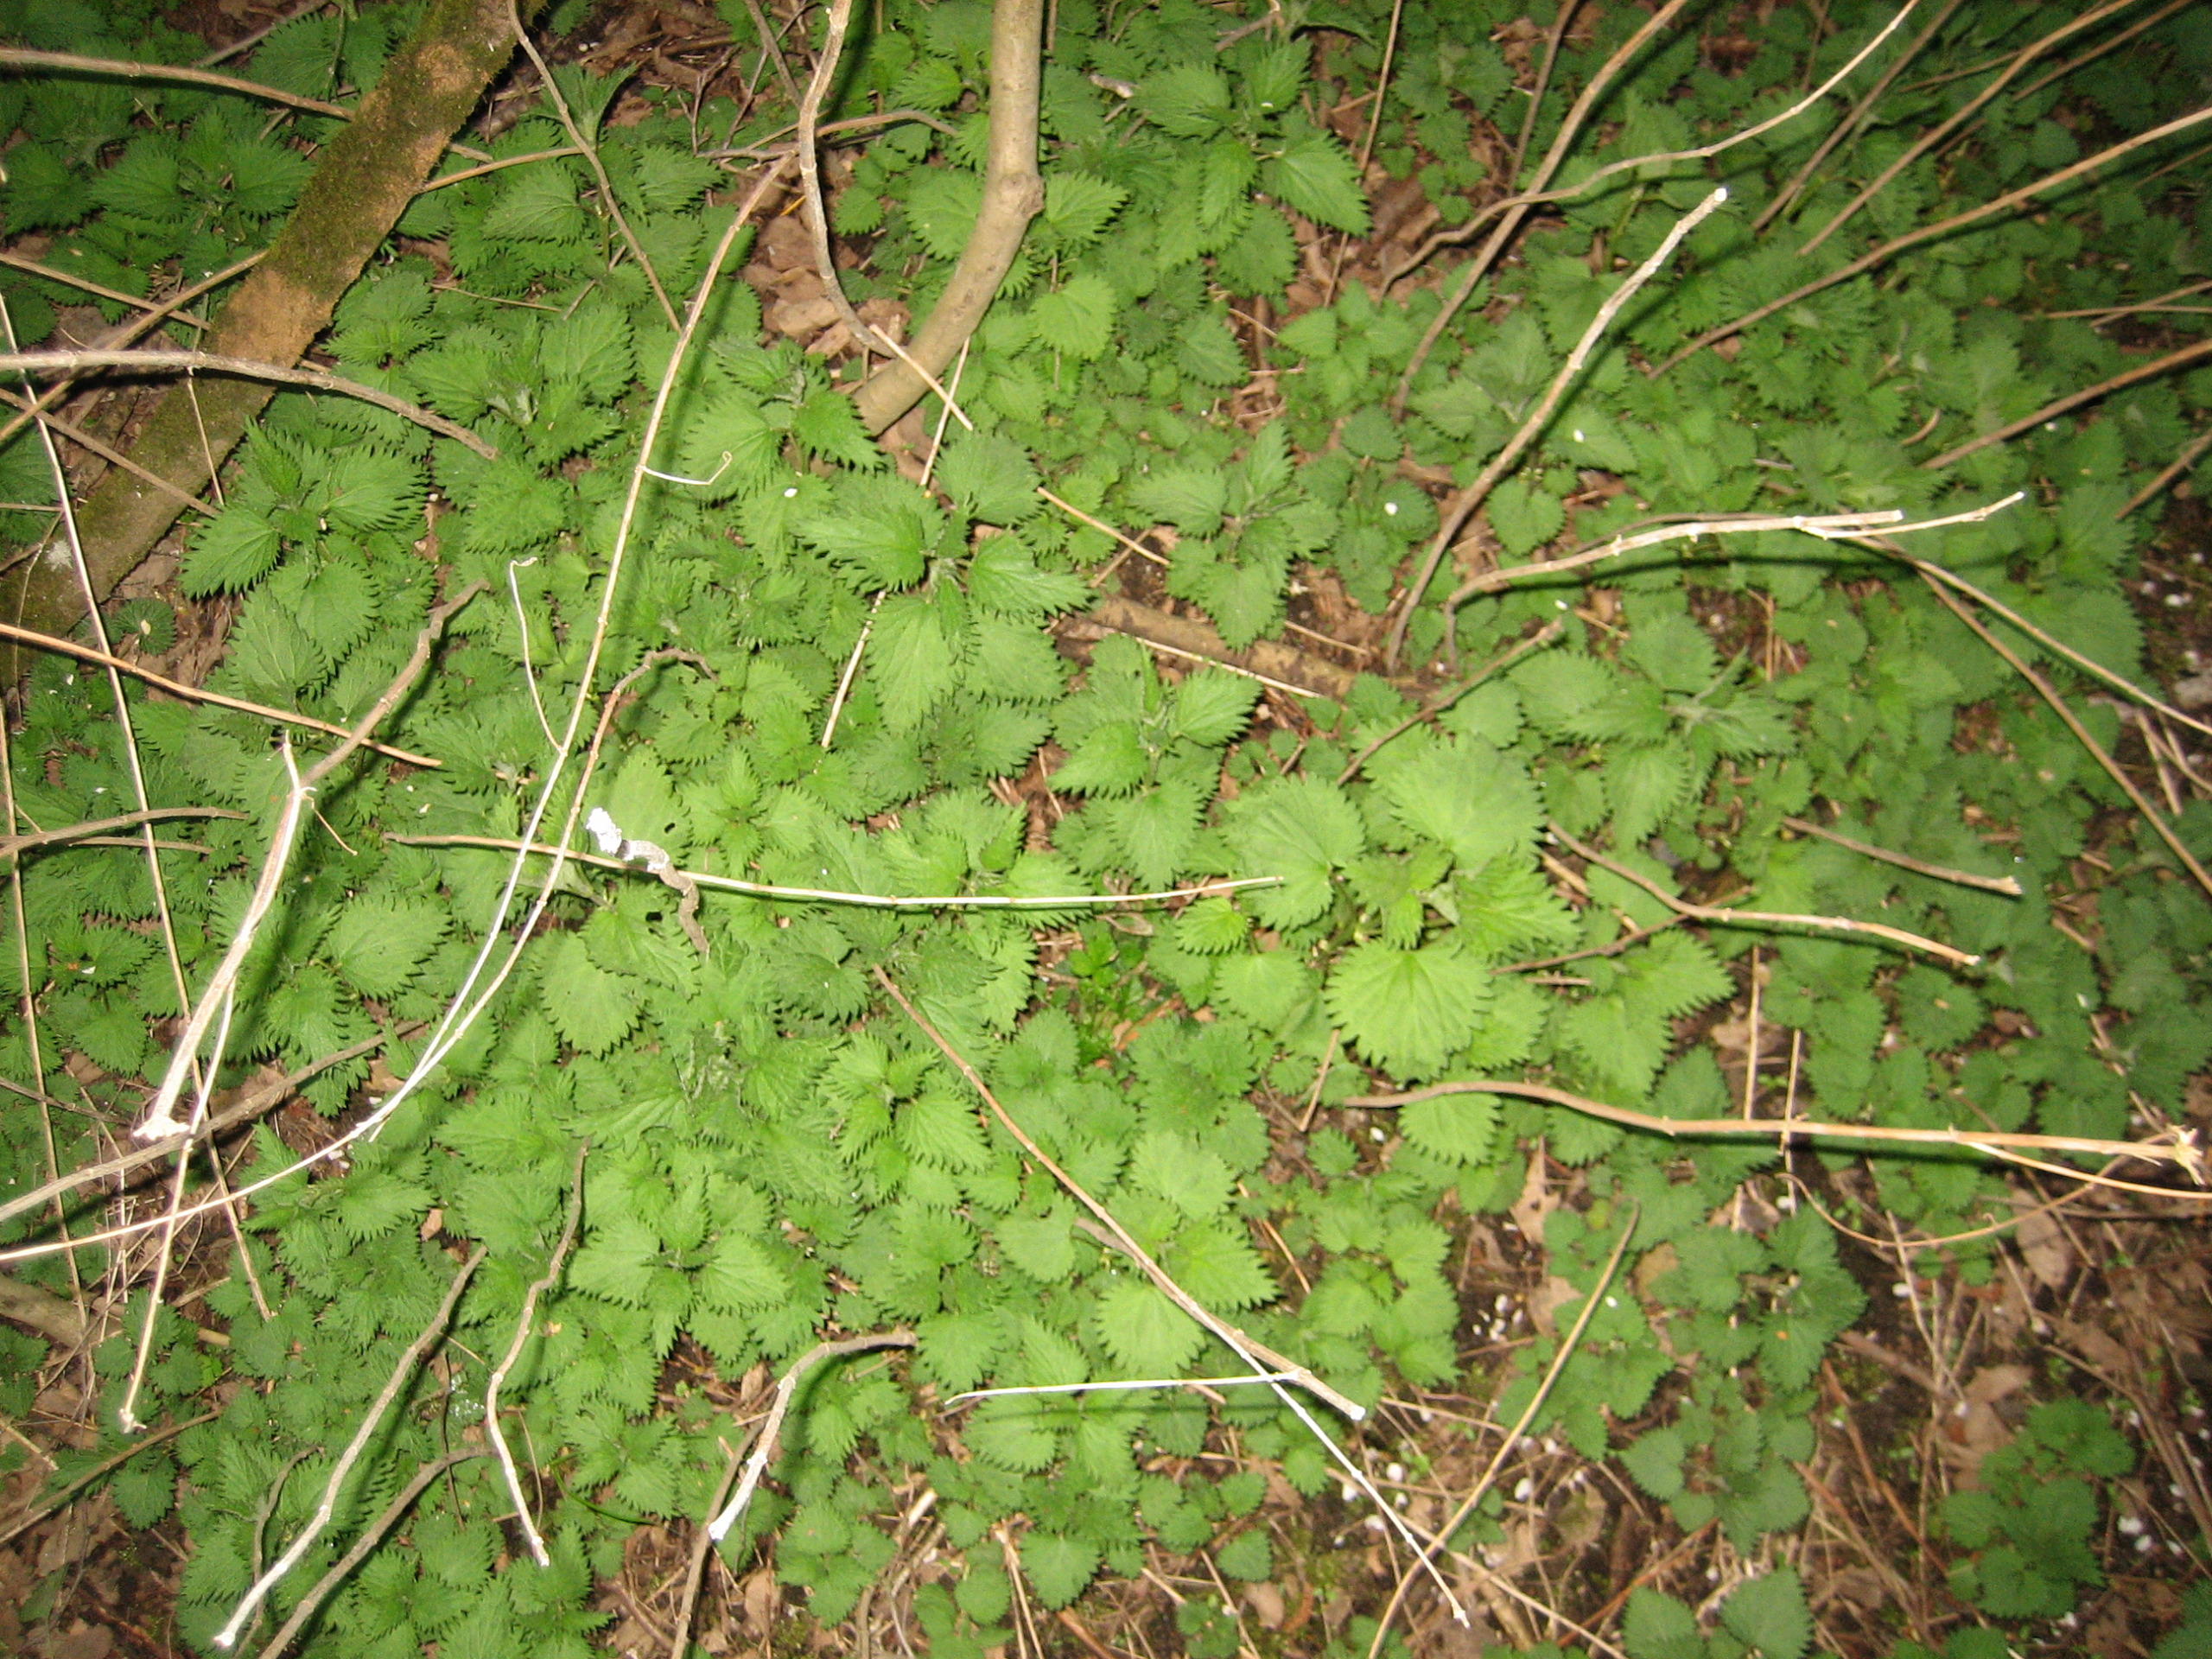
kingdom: Plantae
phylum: Tracheophyta
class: Magnoliopsida
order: Rosales
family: Urticaceae
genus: Urtica
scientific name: Urtica dioica
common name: Stor nælde
